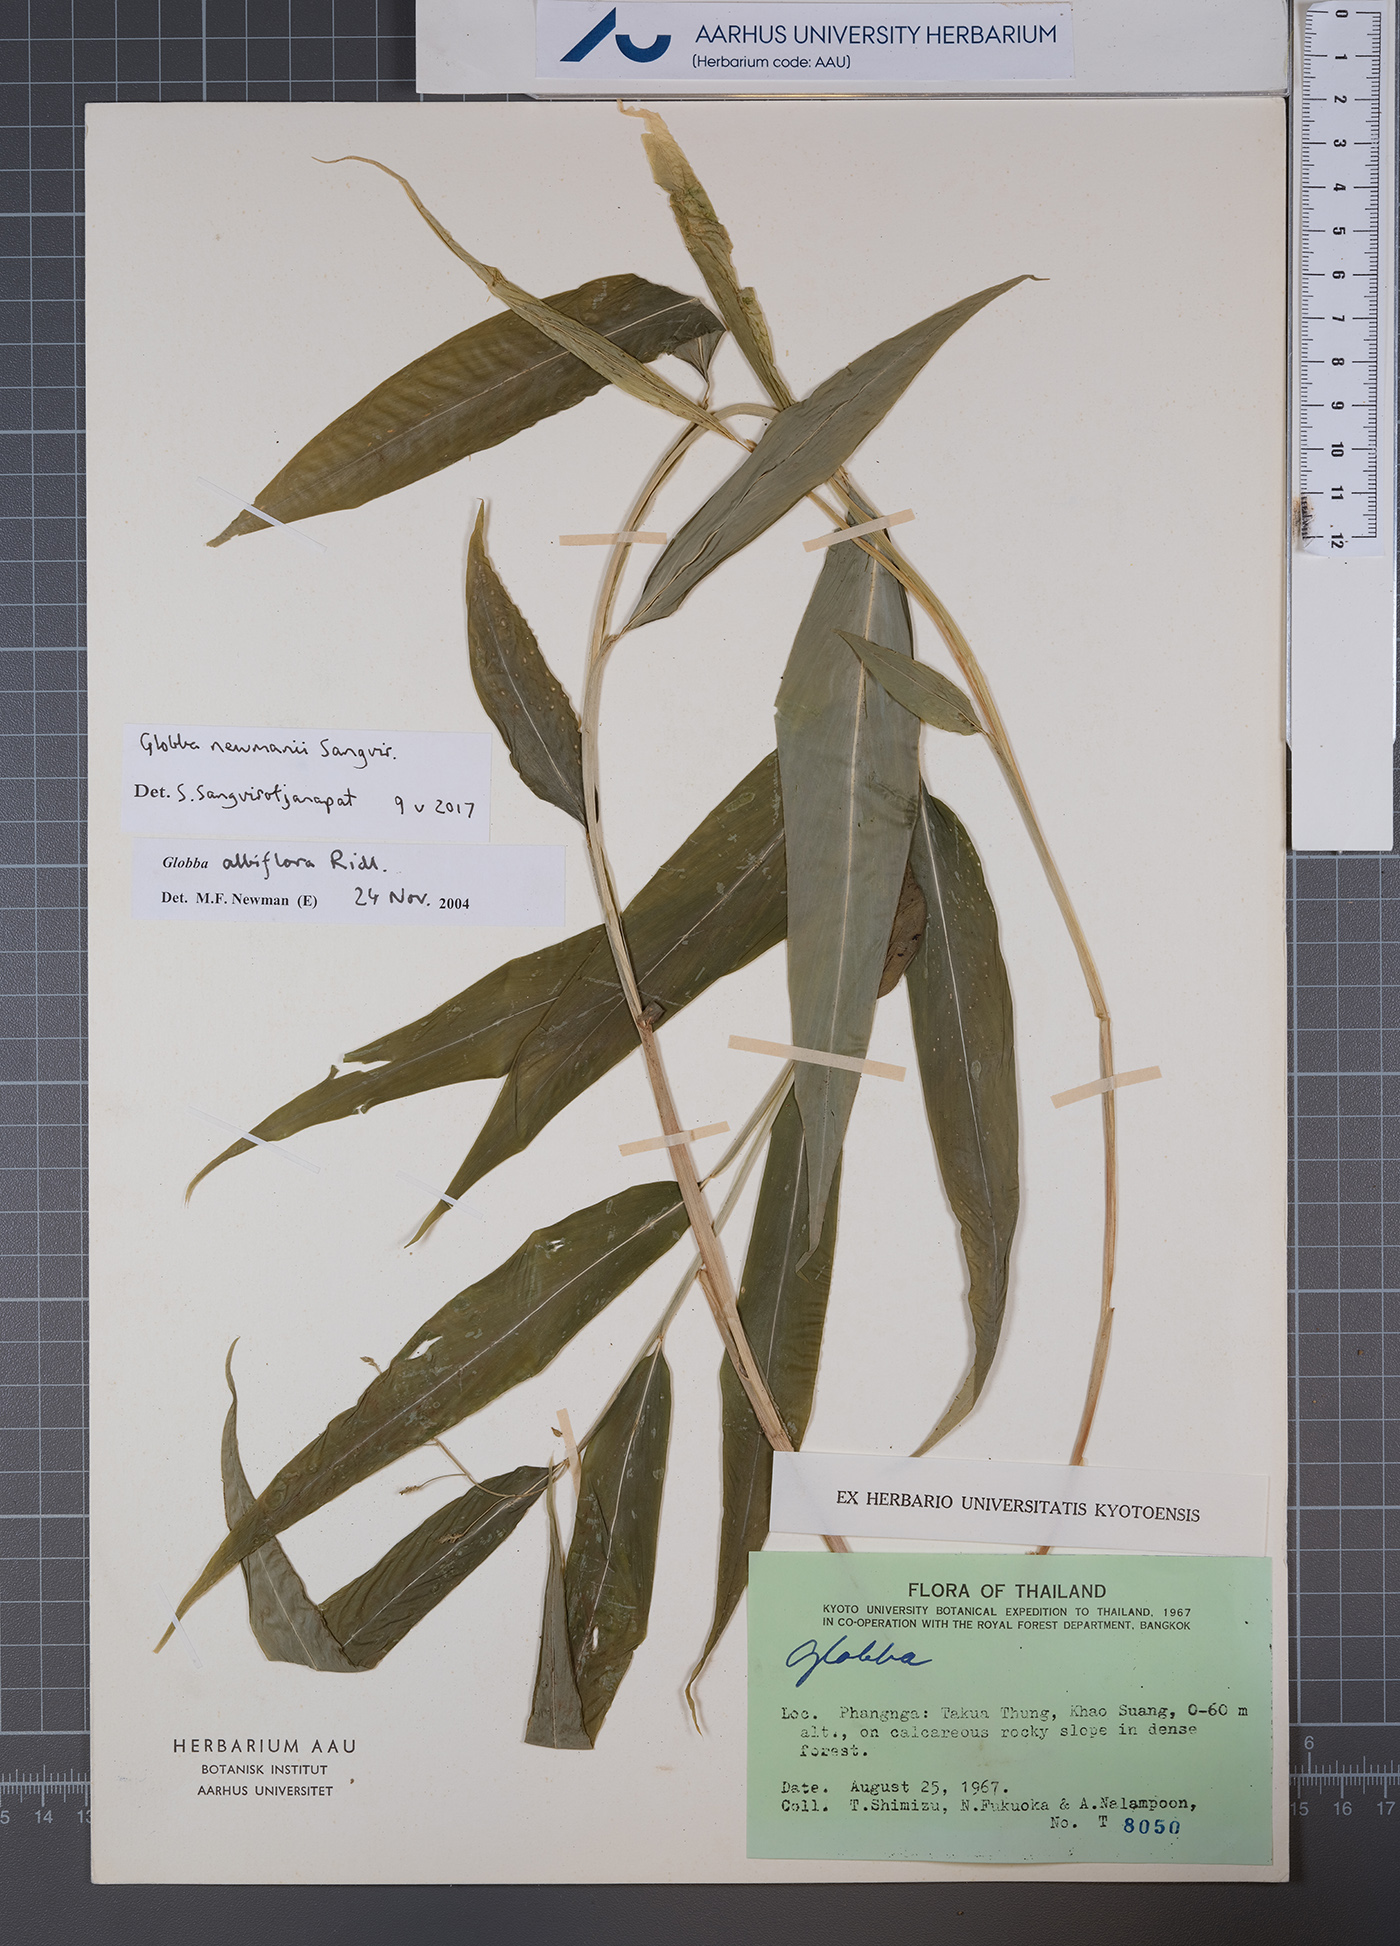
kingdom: Plantae
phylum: Tracheophyta
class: Liliopsida
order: Zingiberales
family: Zingiberaceae
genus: Globba
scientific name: Globba newmanii
